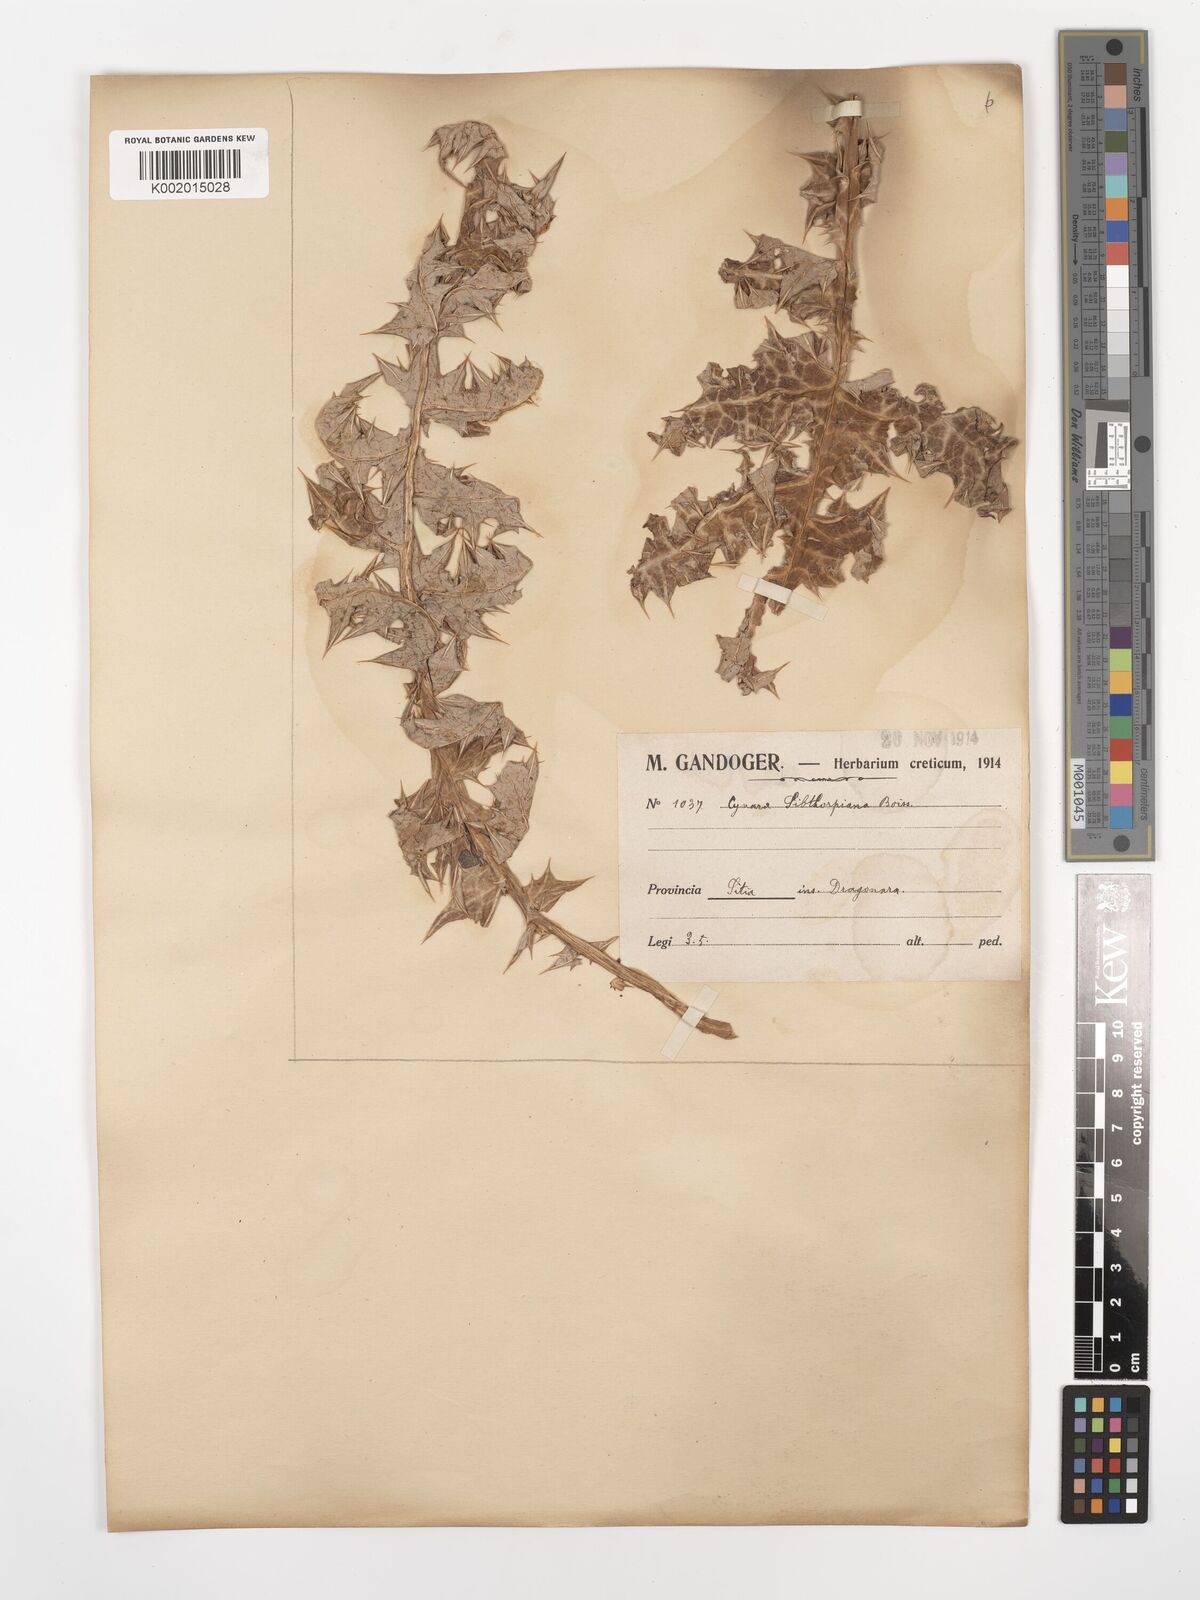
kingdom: Plantae
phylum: Tracheophyta
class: Magnoliopsida
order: Asterales
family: Asteraceae
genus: Cynara
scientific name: Cynara cornigera
